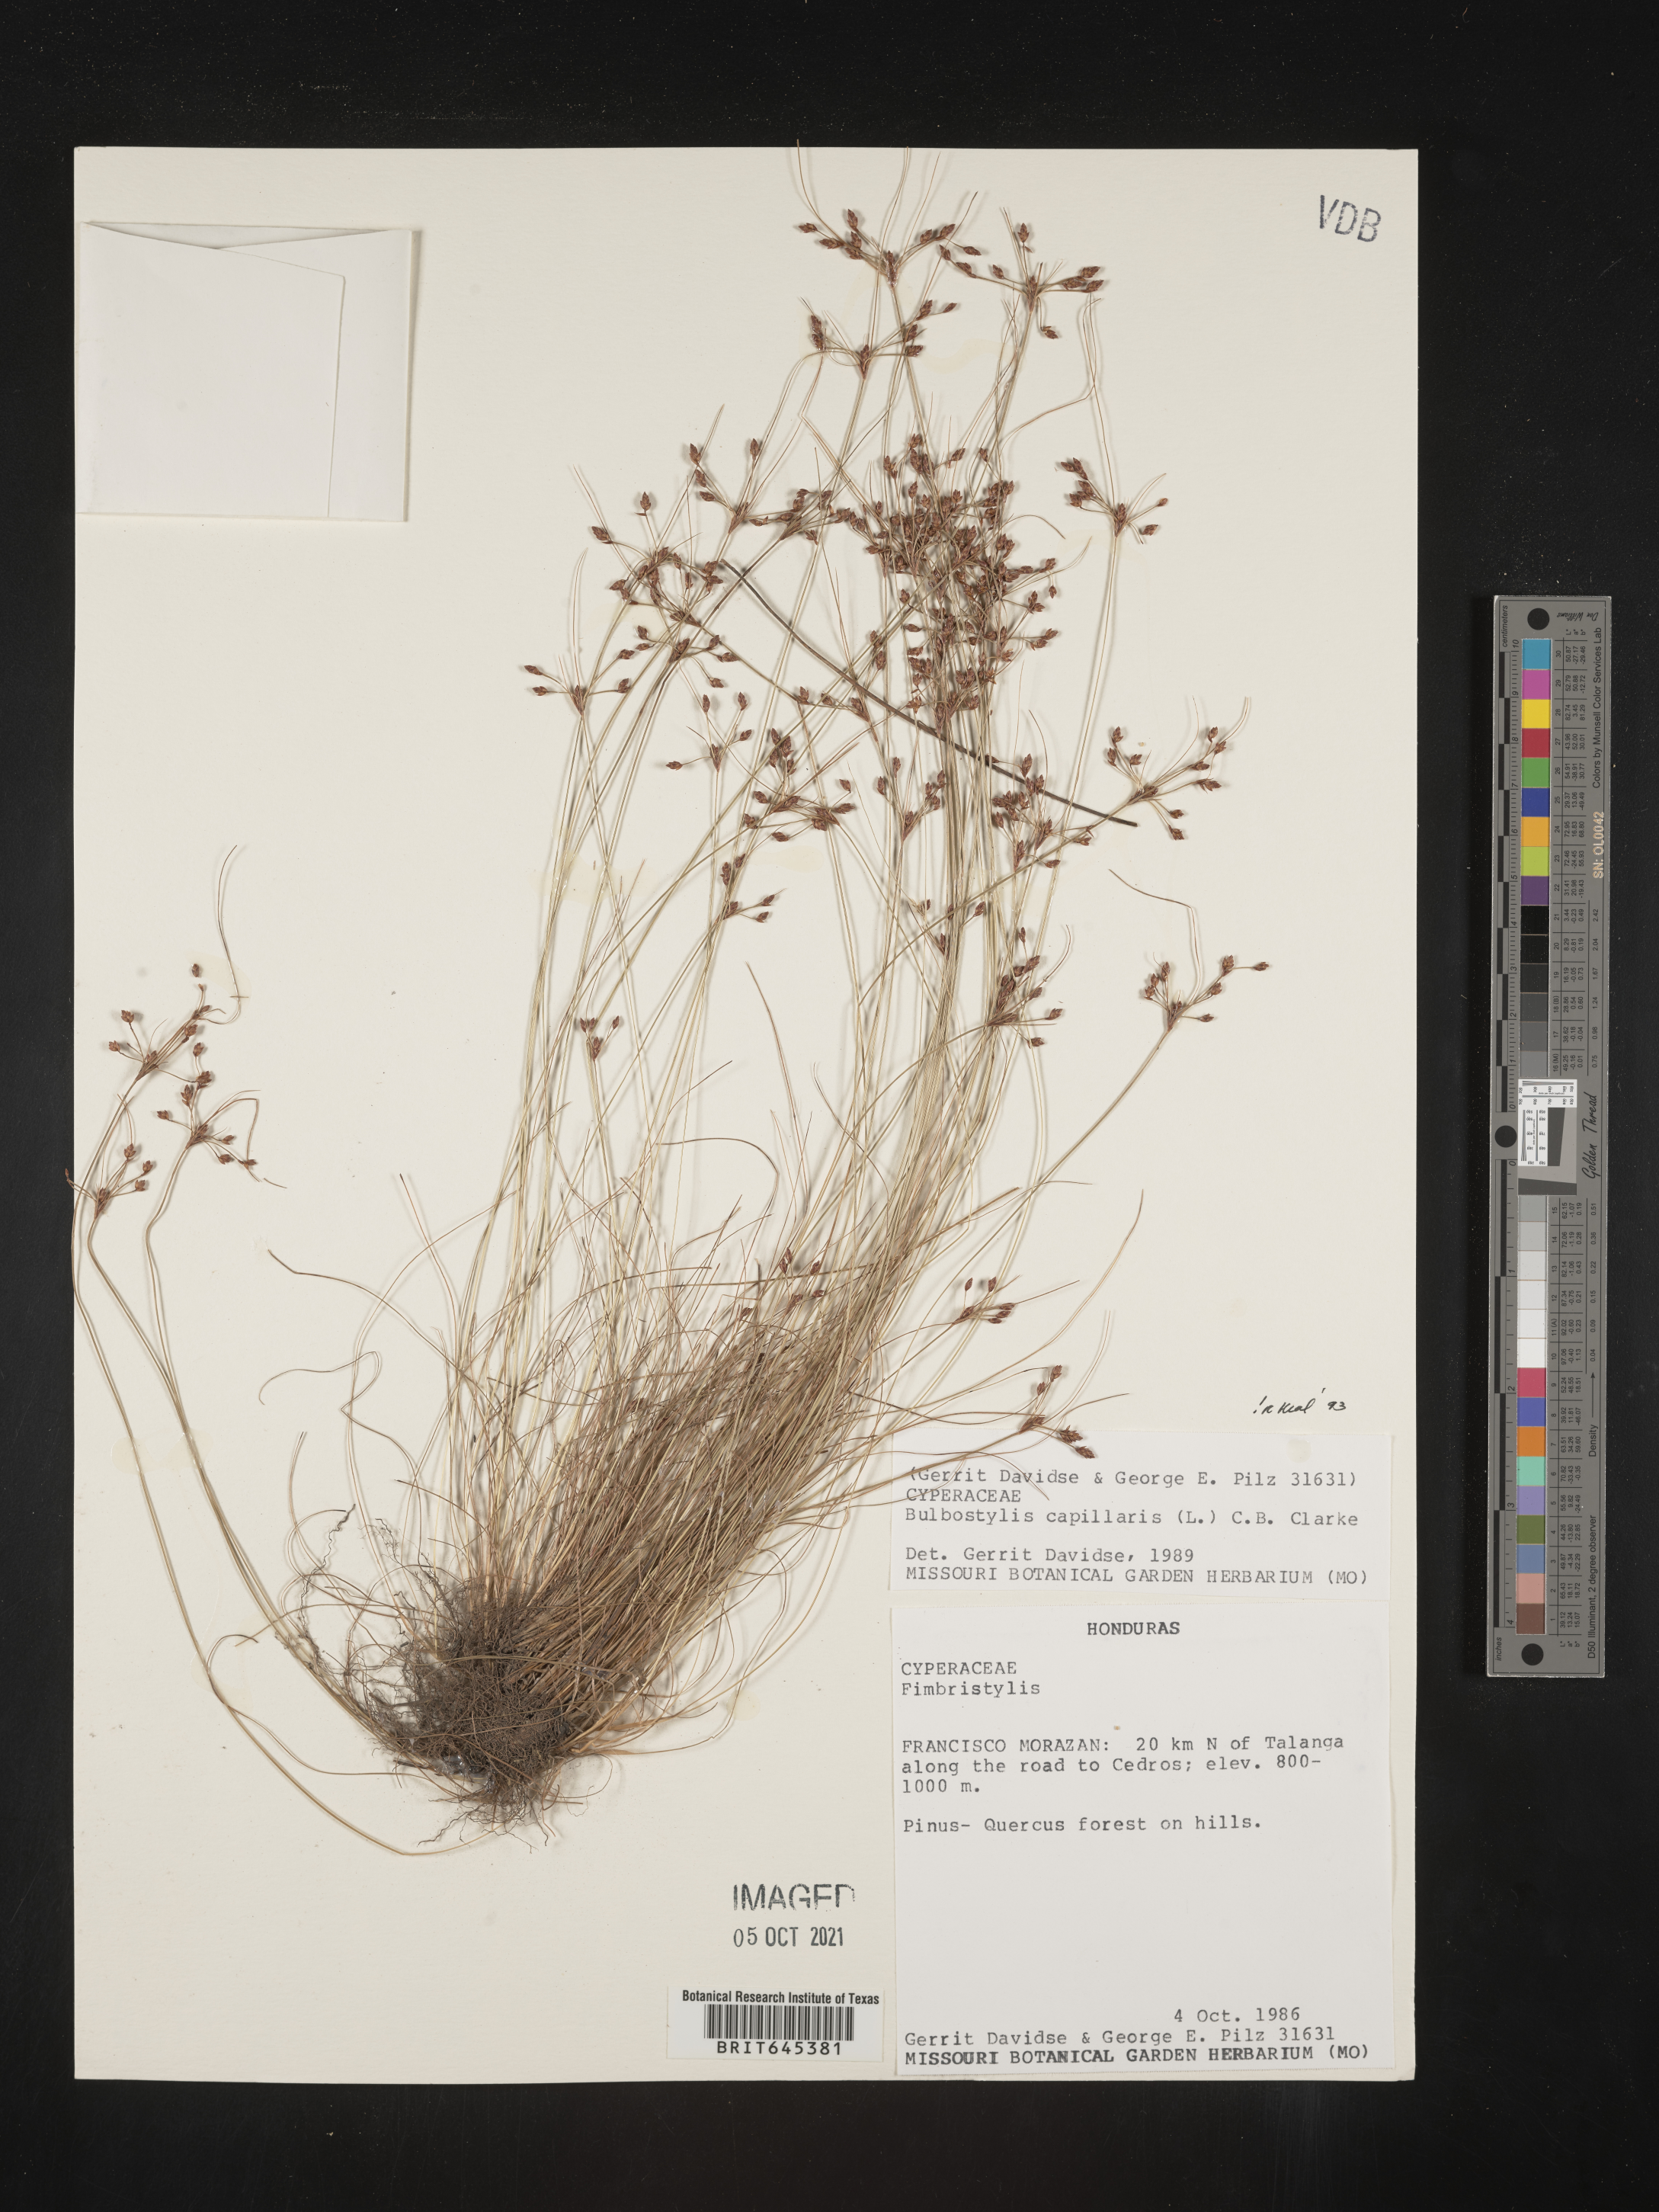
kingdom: Plantae
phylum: Tracheophyta
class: Liliopsida
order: Poales
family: Cyperaceae
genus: Bulbostylis
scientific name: Bulbostylis capillaris
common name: Densetuft hairsedge
